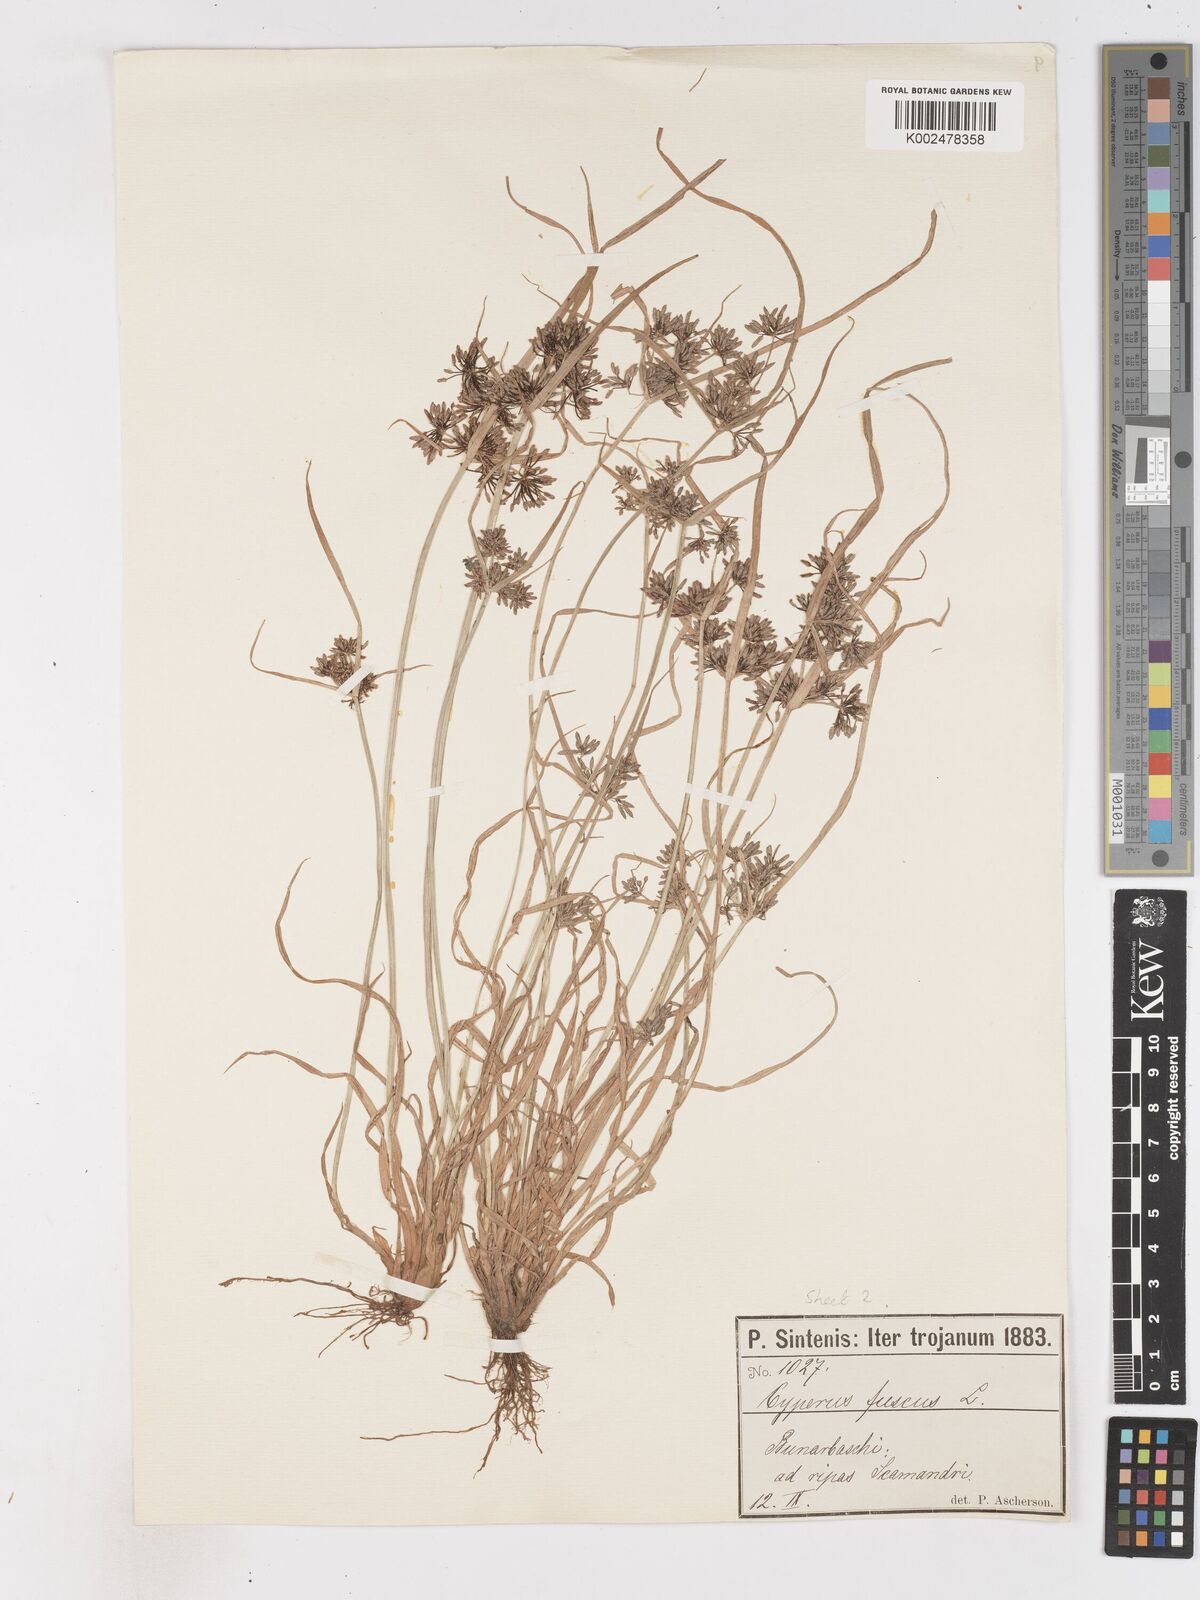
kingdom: Plantae
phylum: Tracheophyta
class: Liliopsida
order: Poales
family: Cyperaceae
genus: Cyperus
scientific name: Cyperus fuscus
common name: Brown galingale
